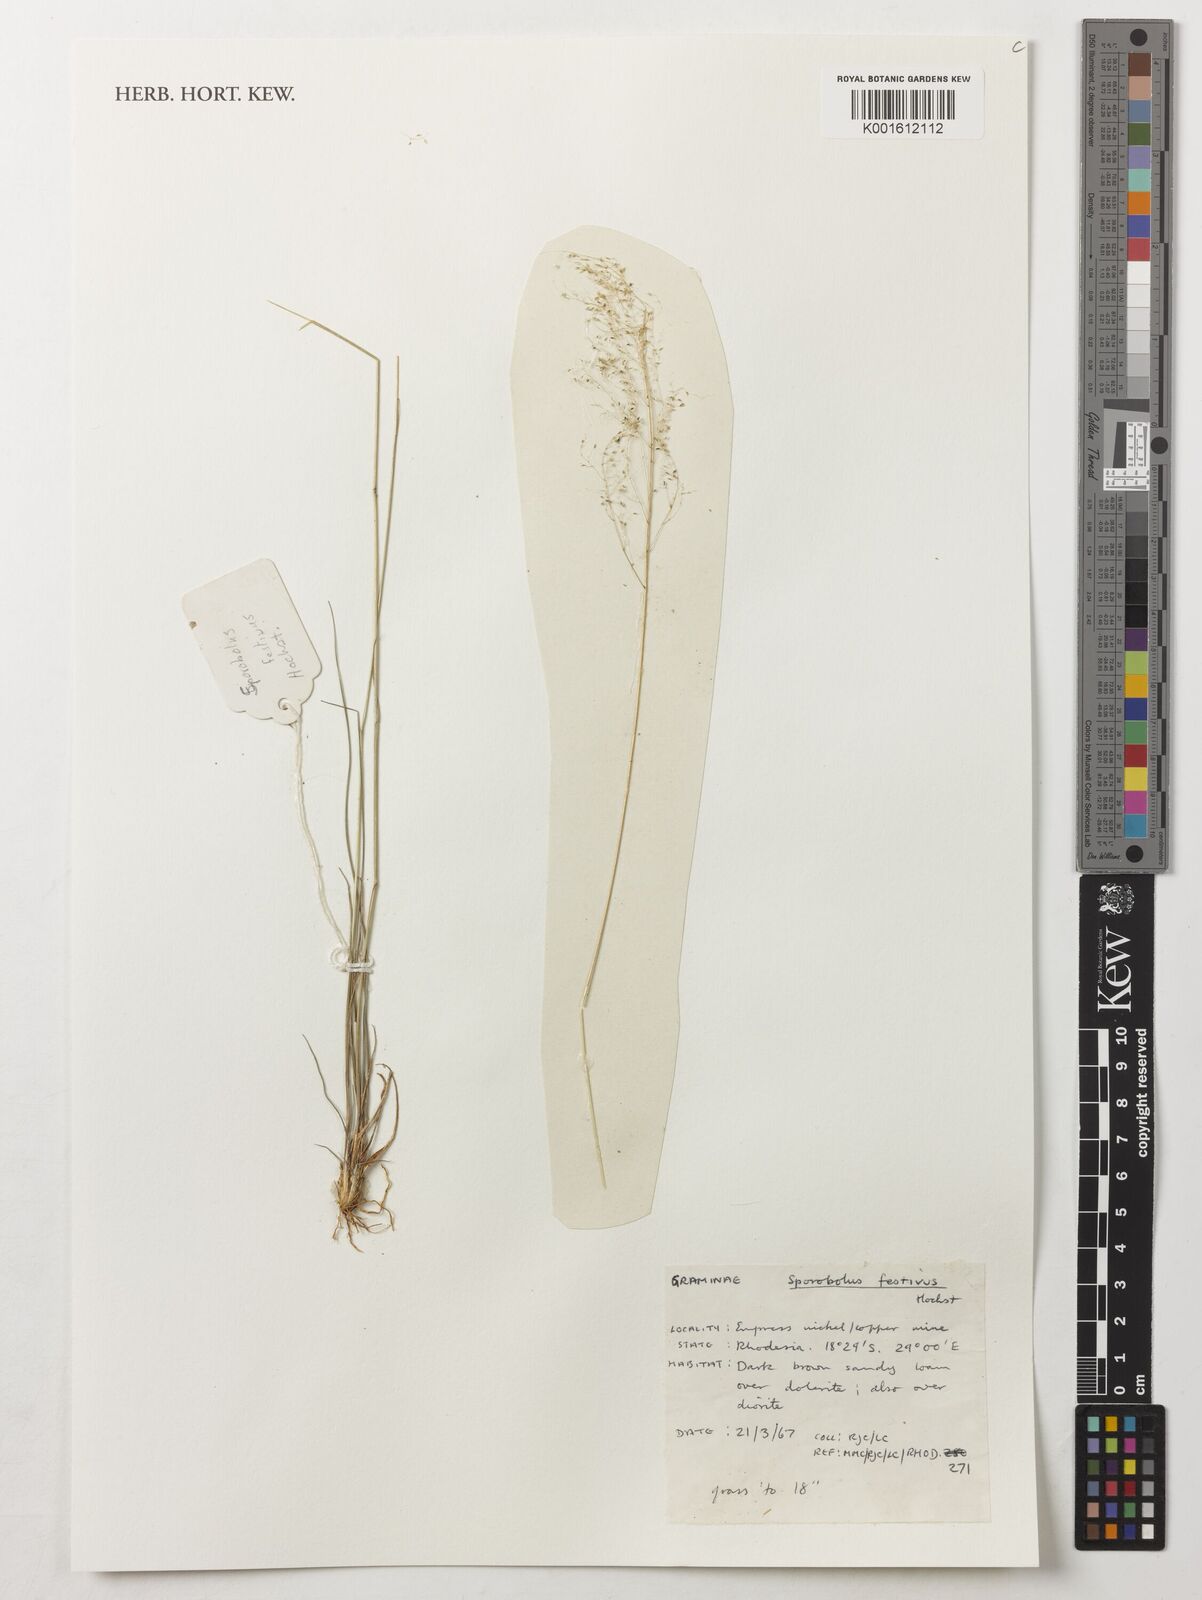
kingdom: Plantae
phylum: Tracheophyta
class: Liliopsida
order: Poales
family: Poaceae
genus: Sporobolus
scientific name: Sporobolus festivus
